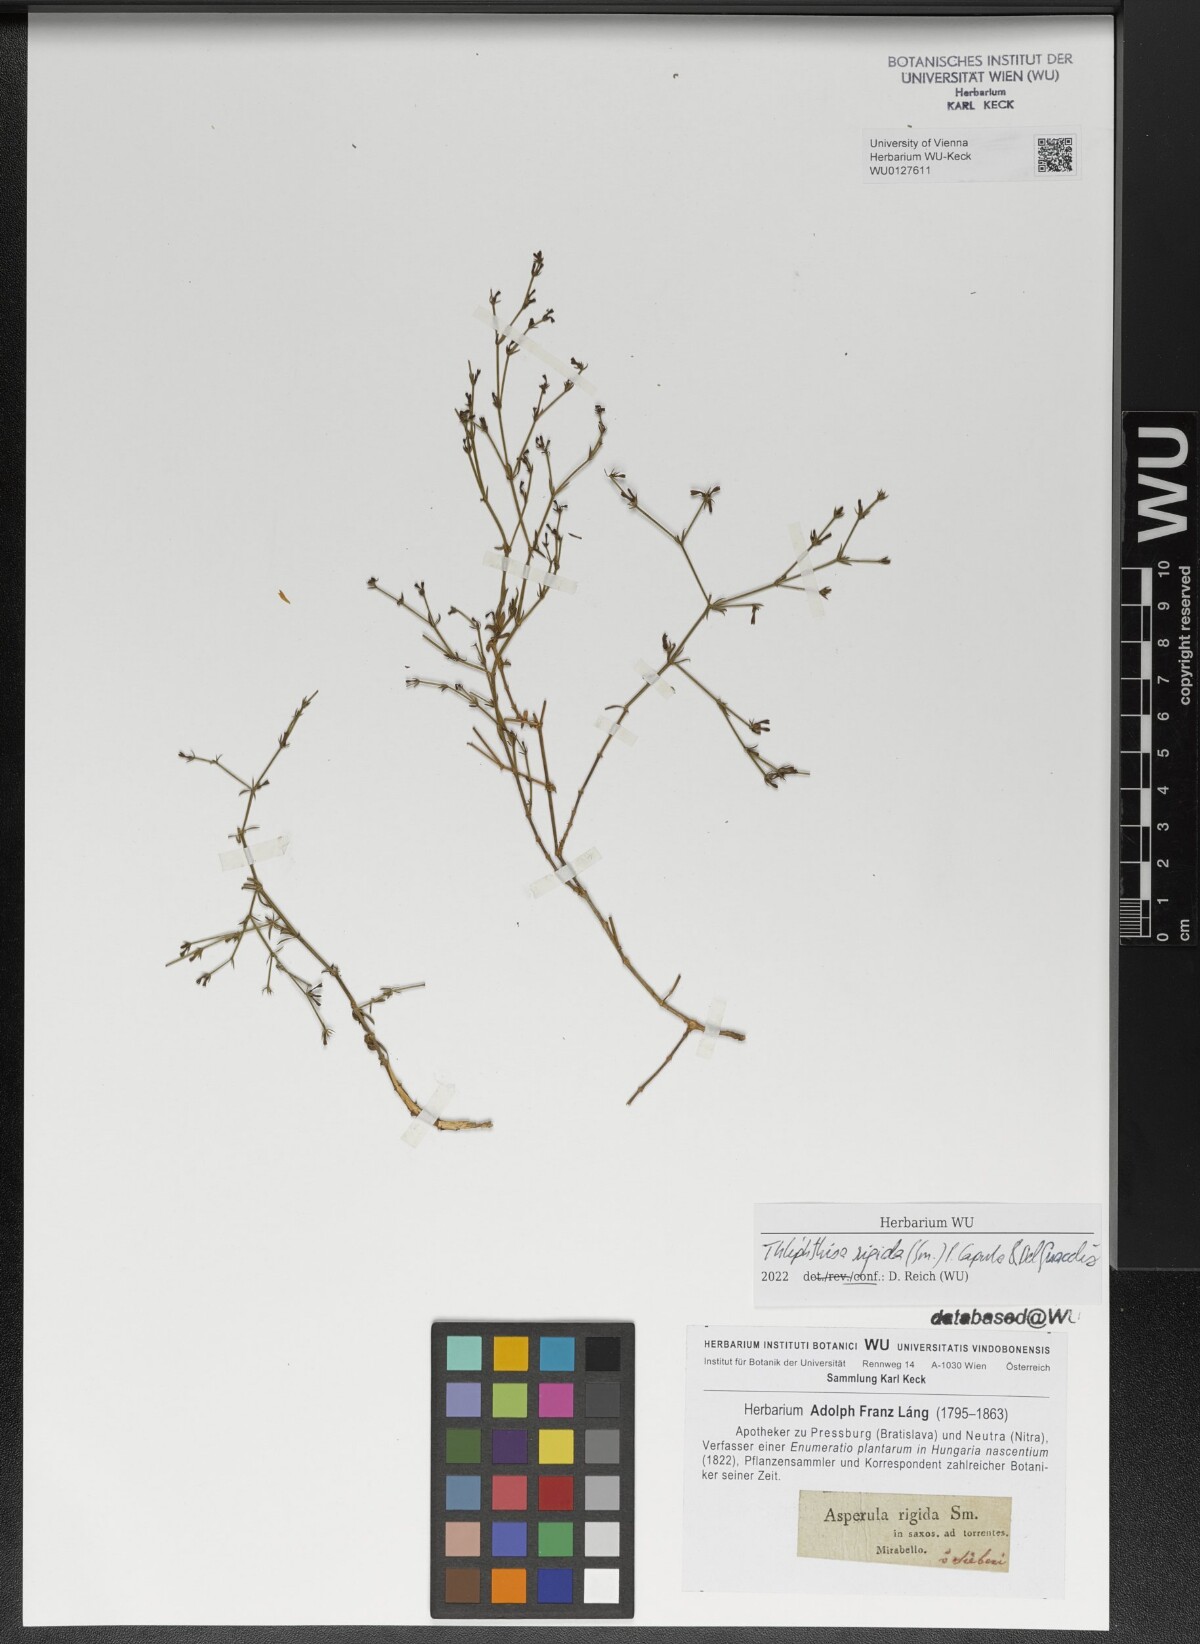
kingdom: Plantae
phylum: Tracheophyta
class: Magnoliopsida
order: Gentianales
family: Rubiaceae
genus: Thliphthisa
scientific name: Thliphthisa rigida
